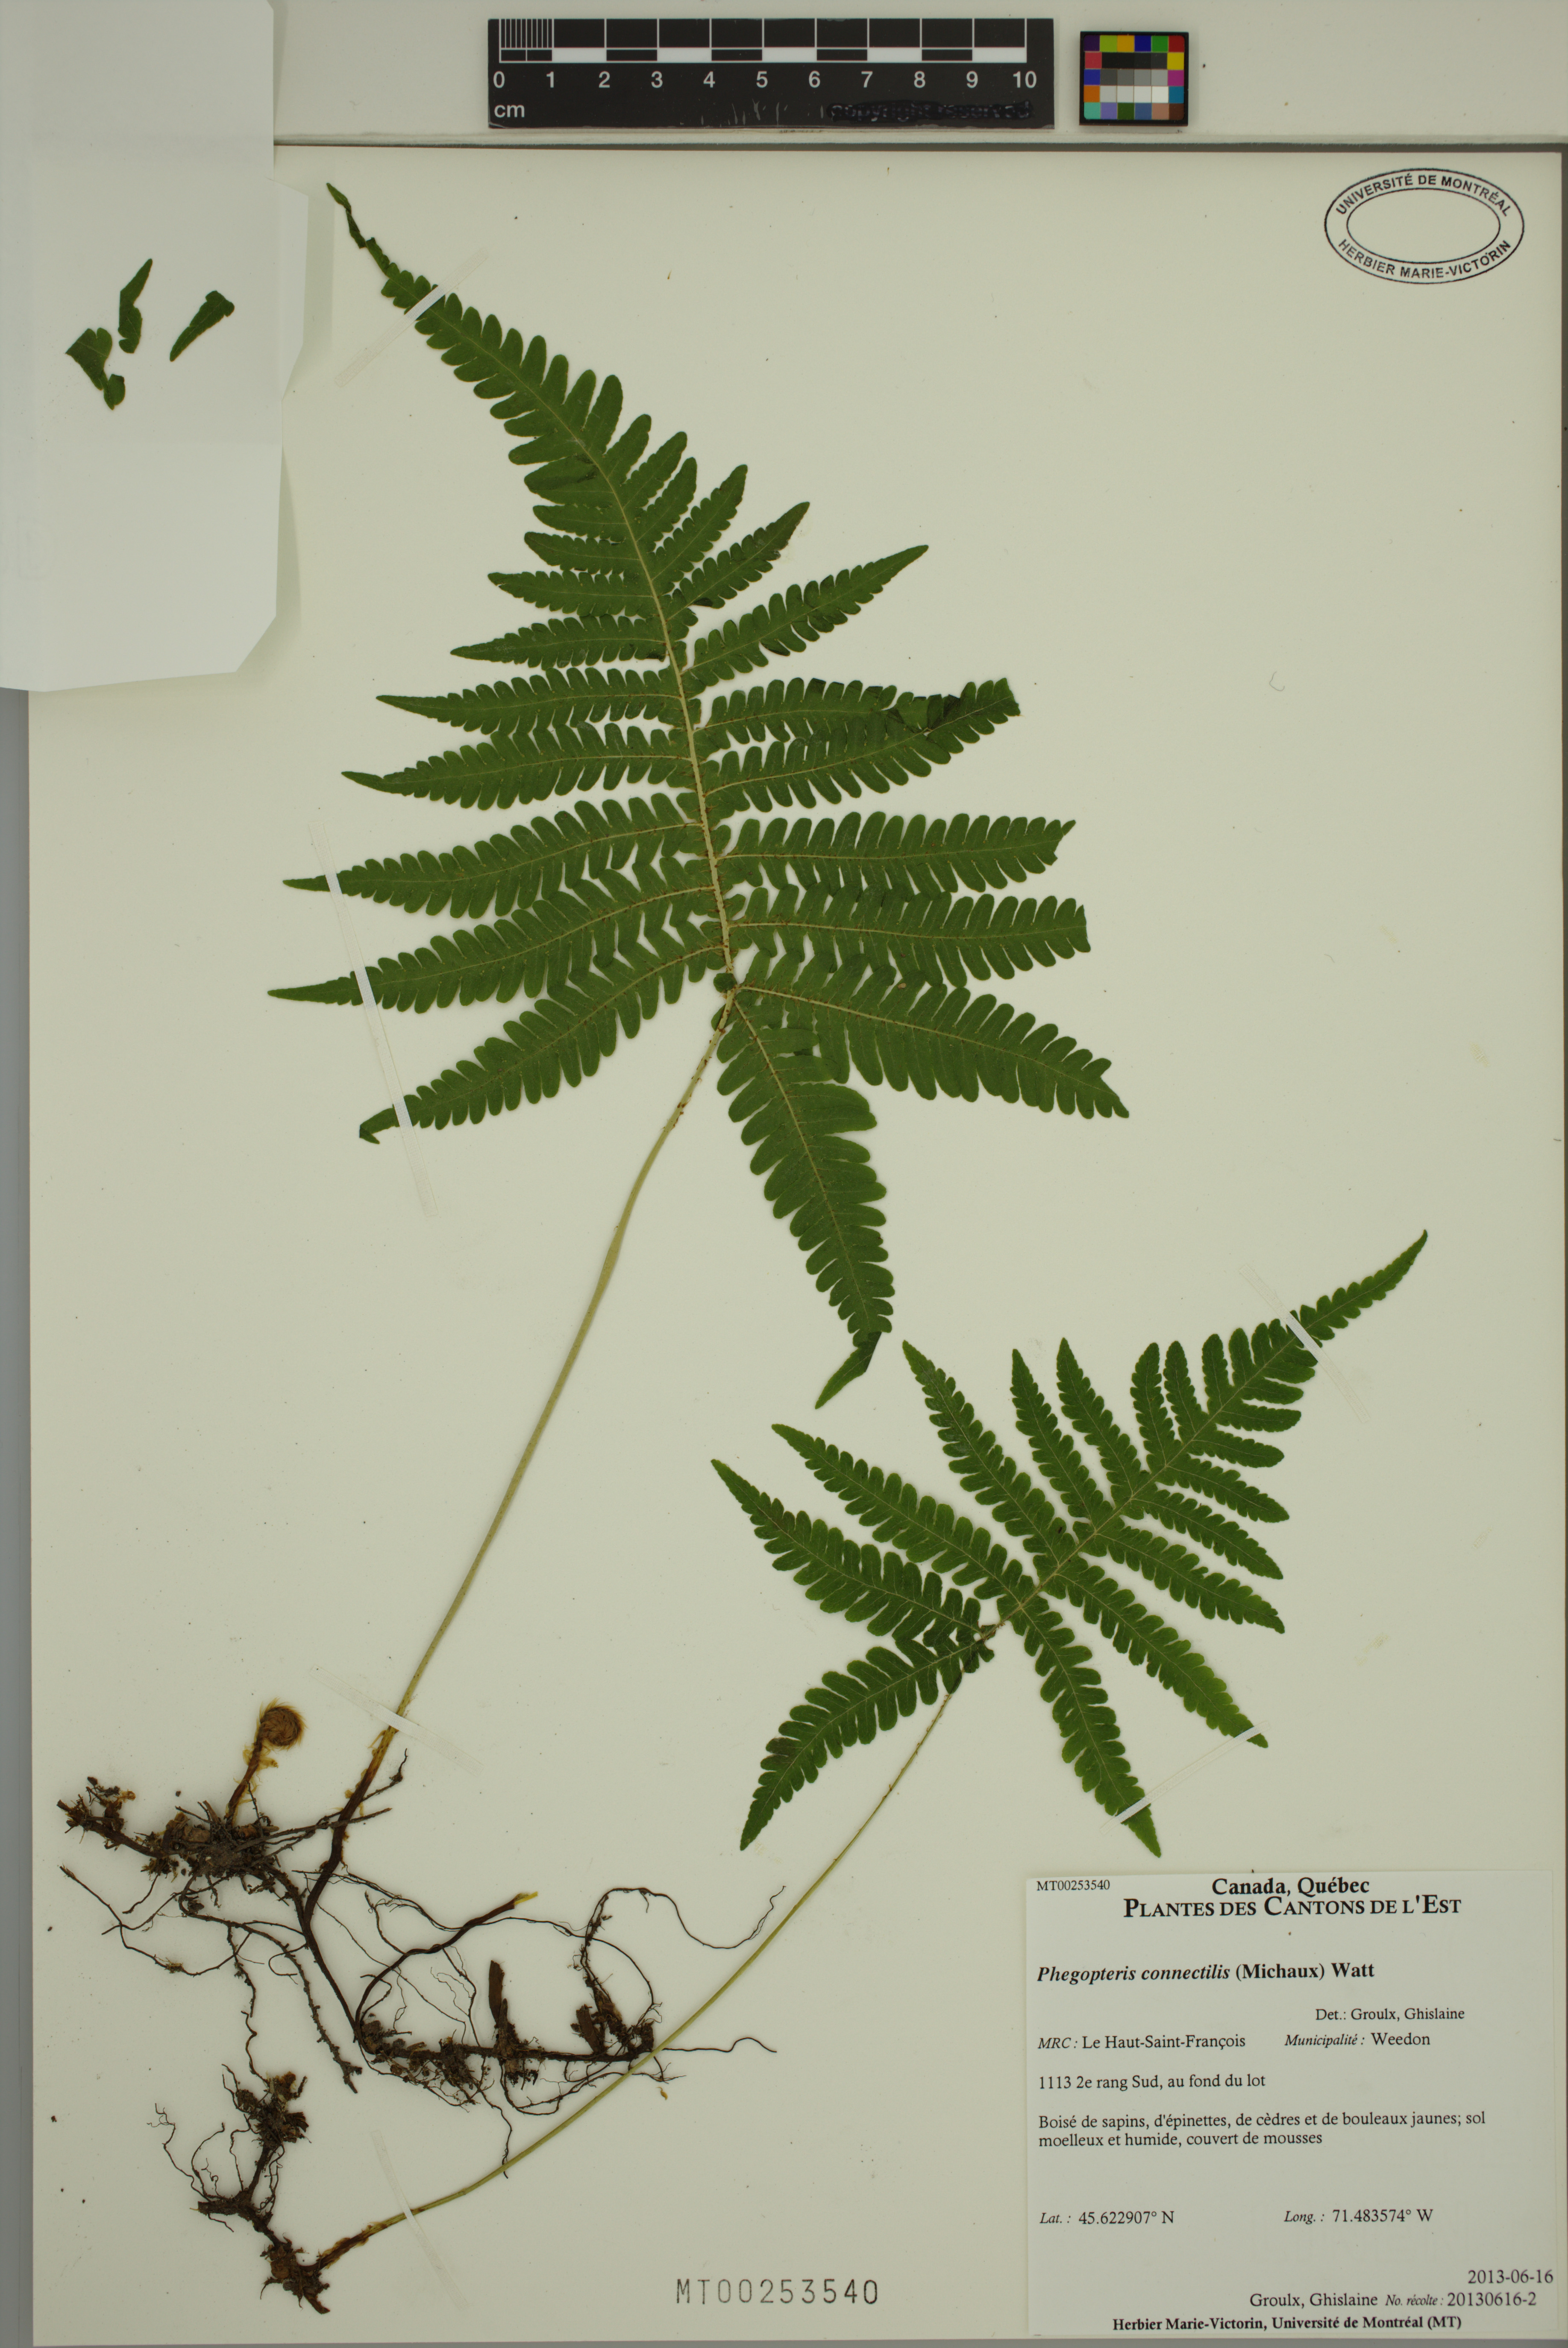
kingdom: Plantae
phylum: Tracheophyta
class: Polypodiopsida
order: Polypodiales
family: Thelypteridaceae
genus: Phegopteris
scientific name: Phegopteris connectilis
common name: Beech fern
